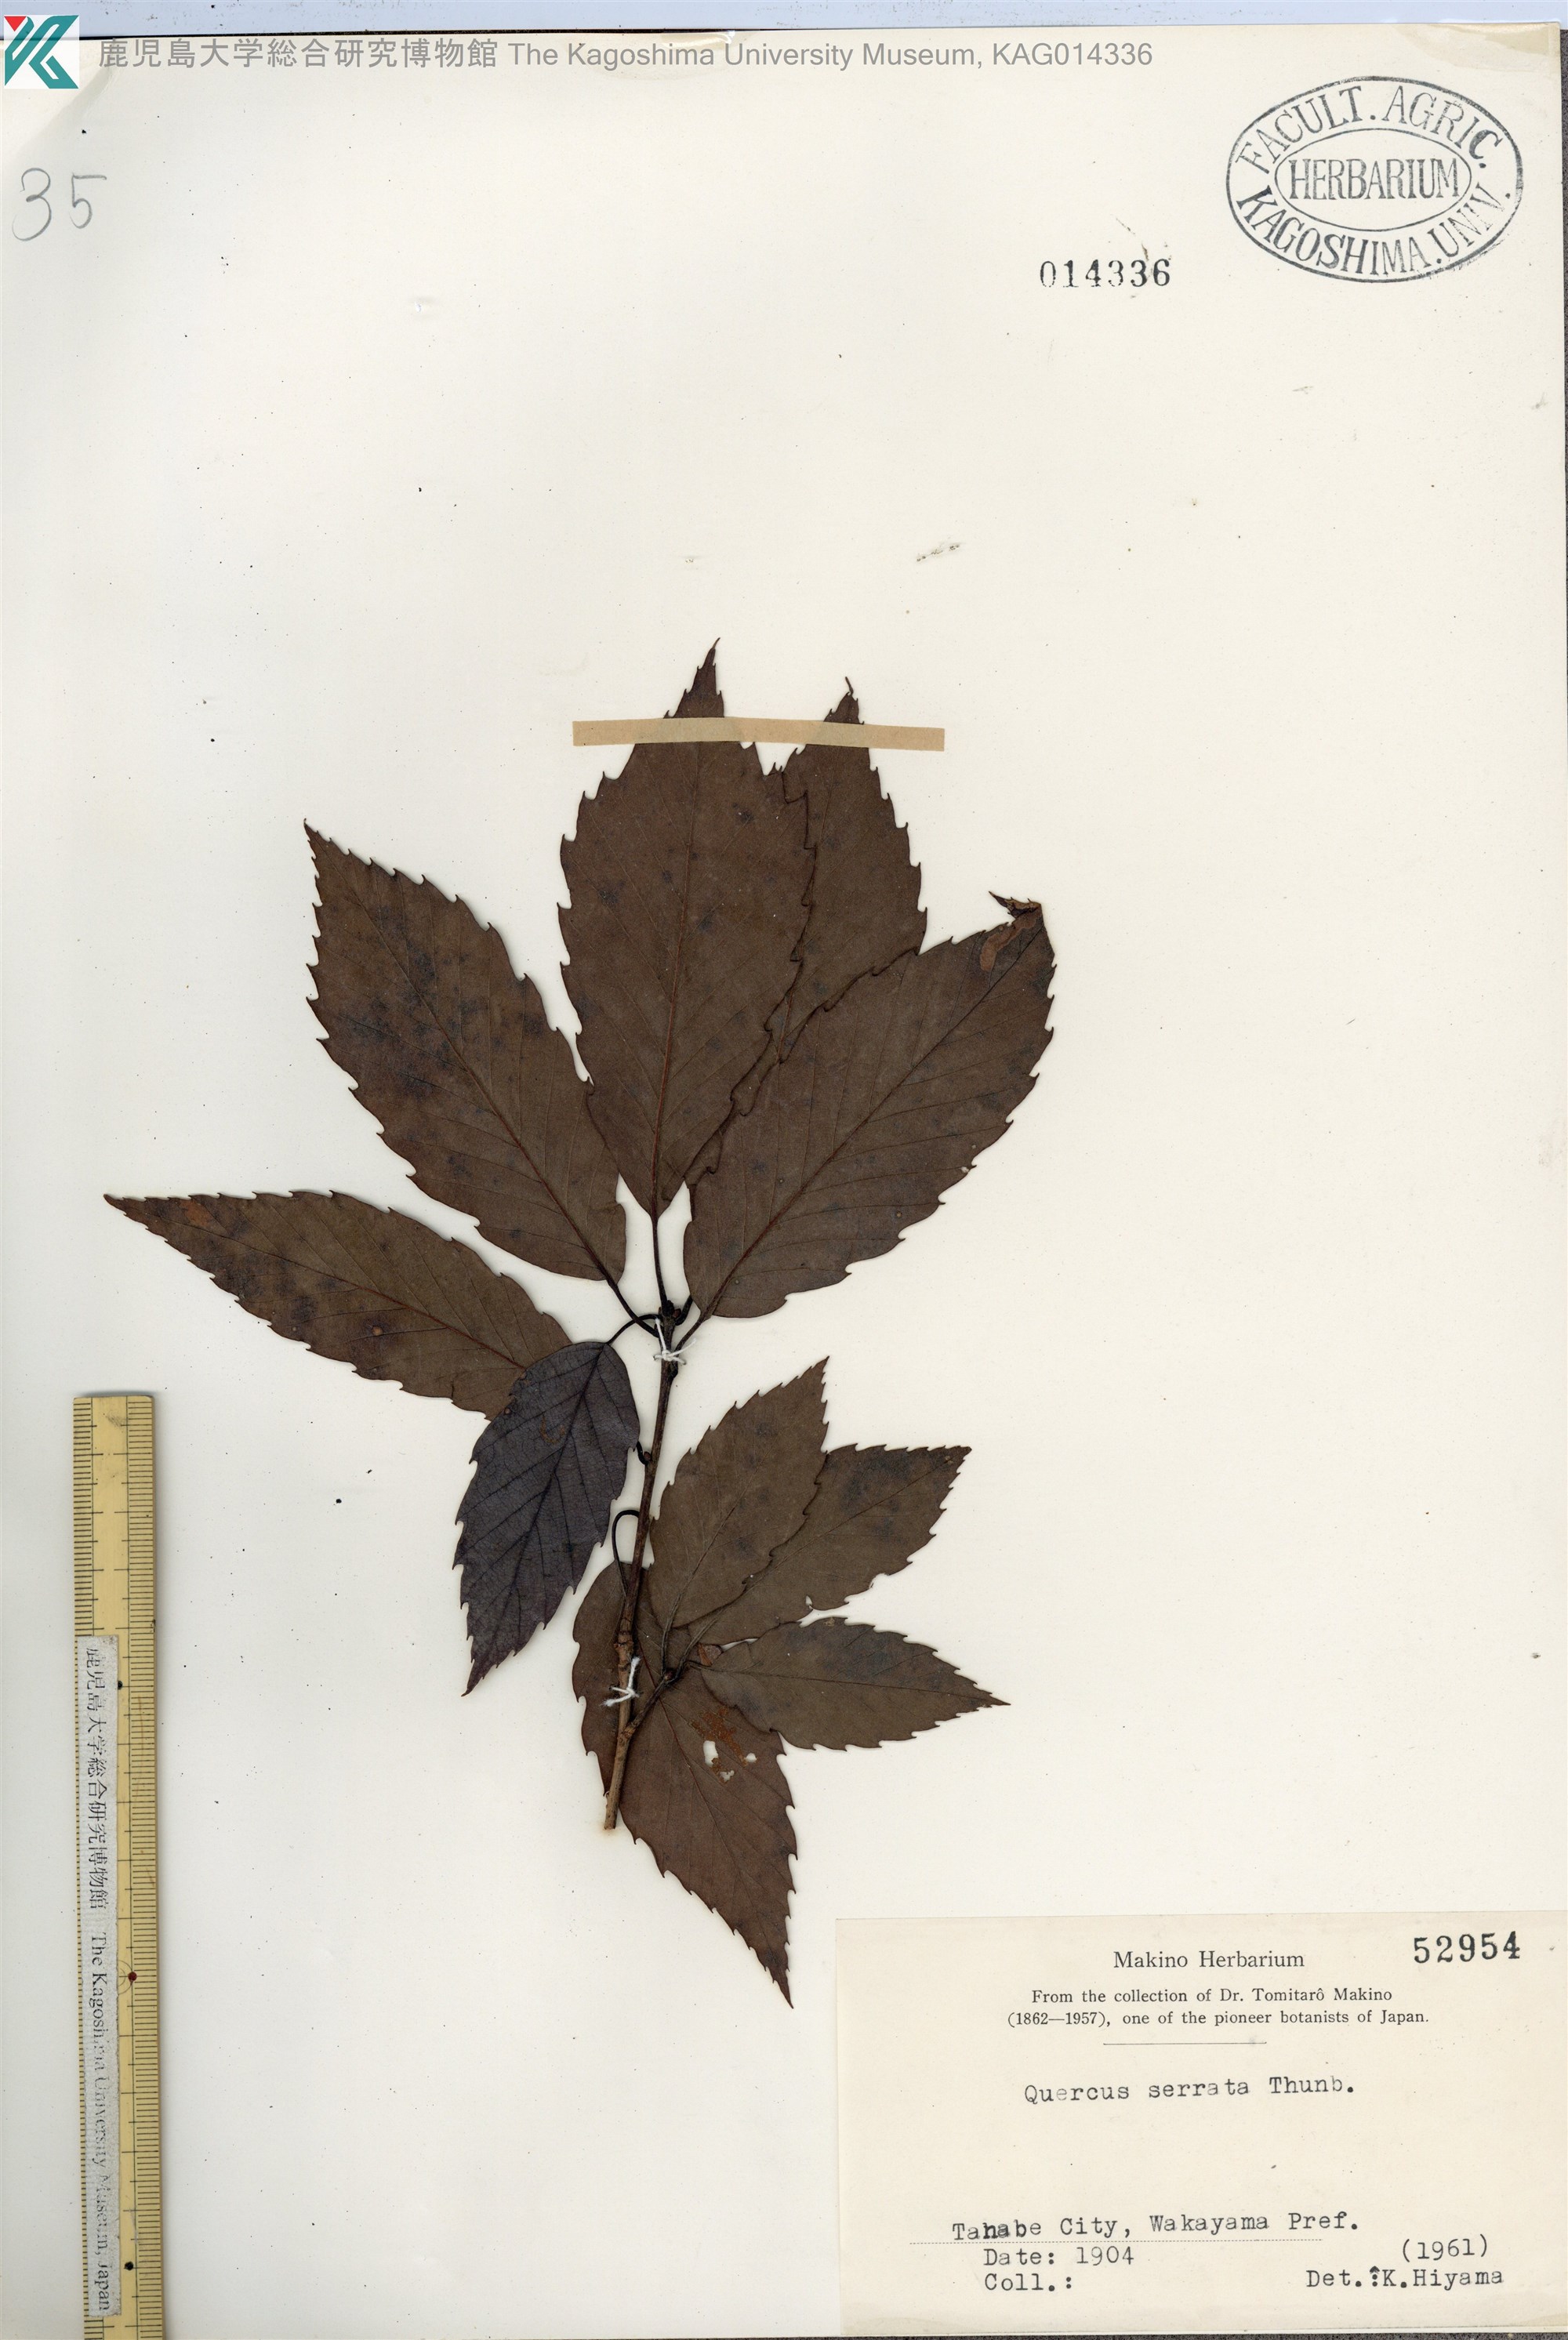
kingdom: Plantae
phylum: Tracheophyta
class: Magnoliopsida
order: Fagales
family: Fagaceae
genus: Quercus
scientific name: Quercus serrata
